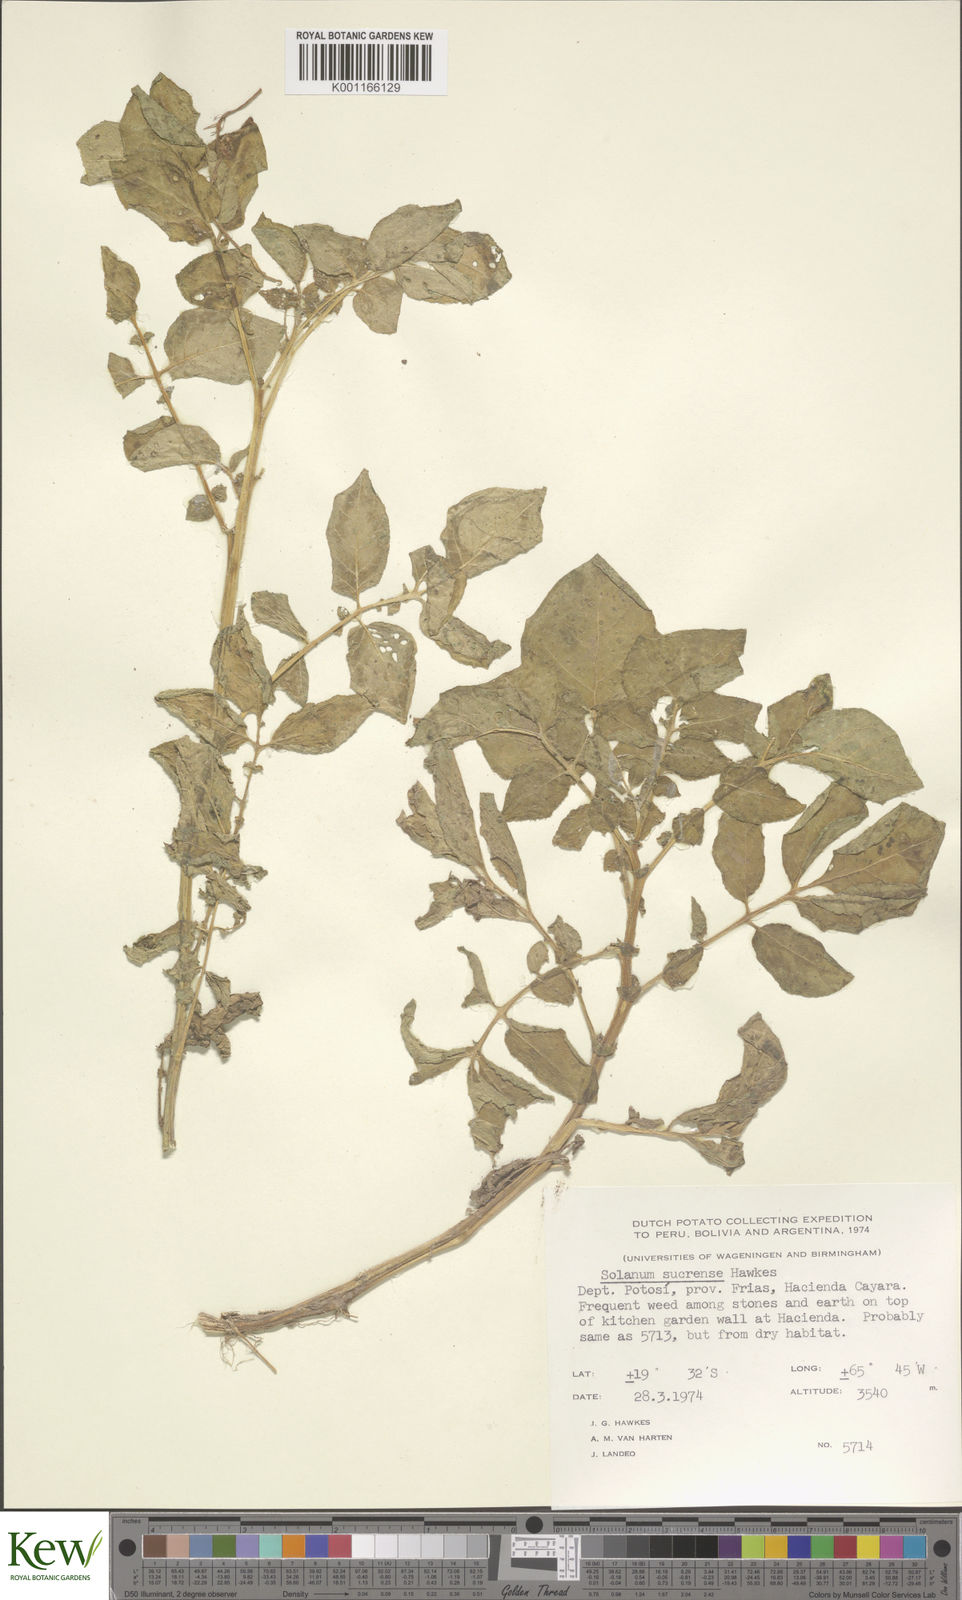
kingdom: Plantae
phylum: Tracheophyta
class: Magnoliopsida
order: Solanales
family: Solanaceae
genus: Solanum
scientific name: Solanum brevicaule
